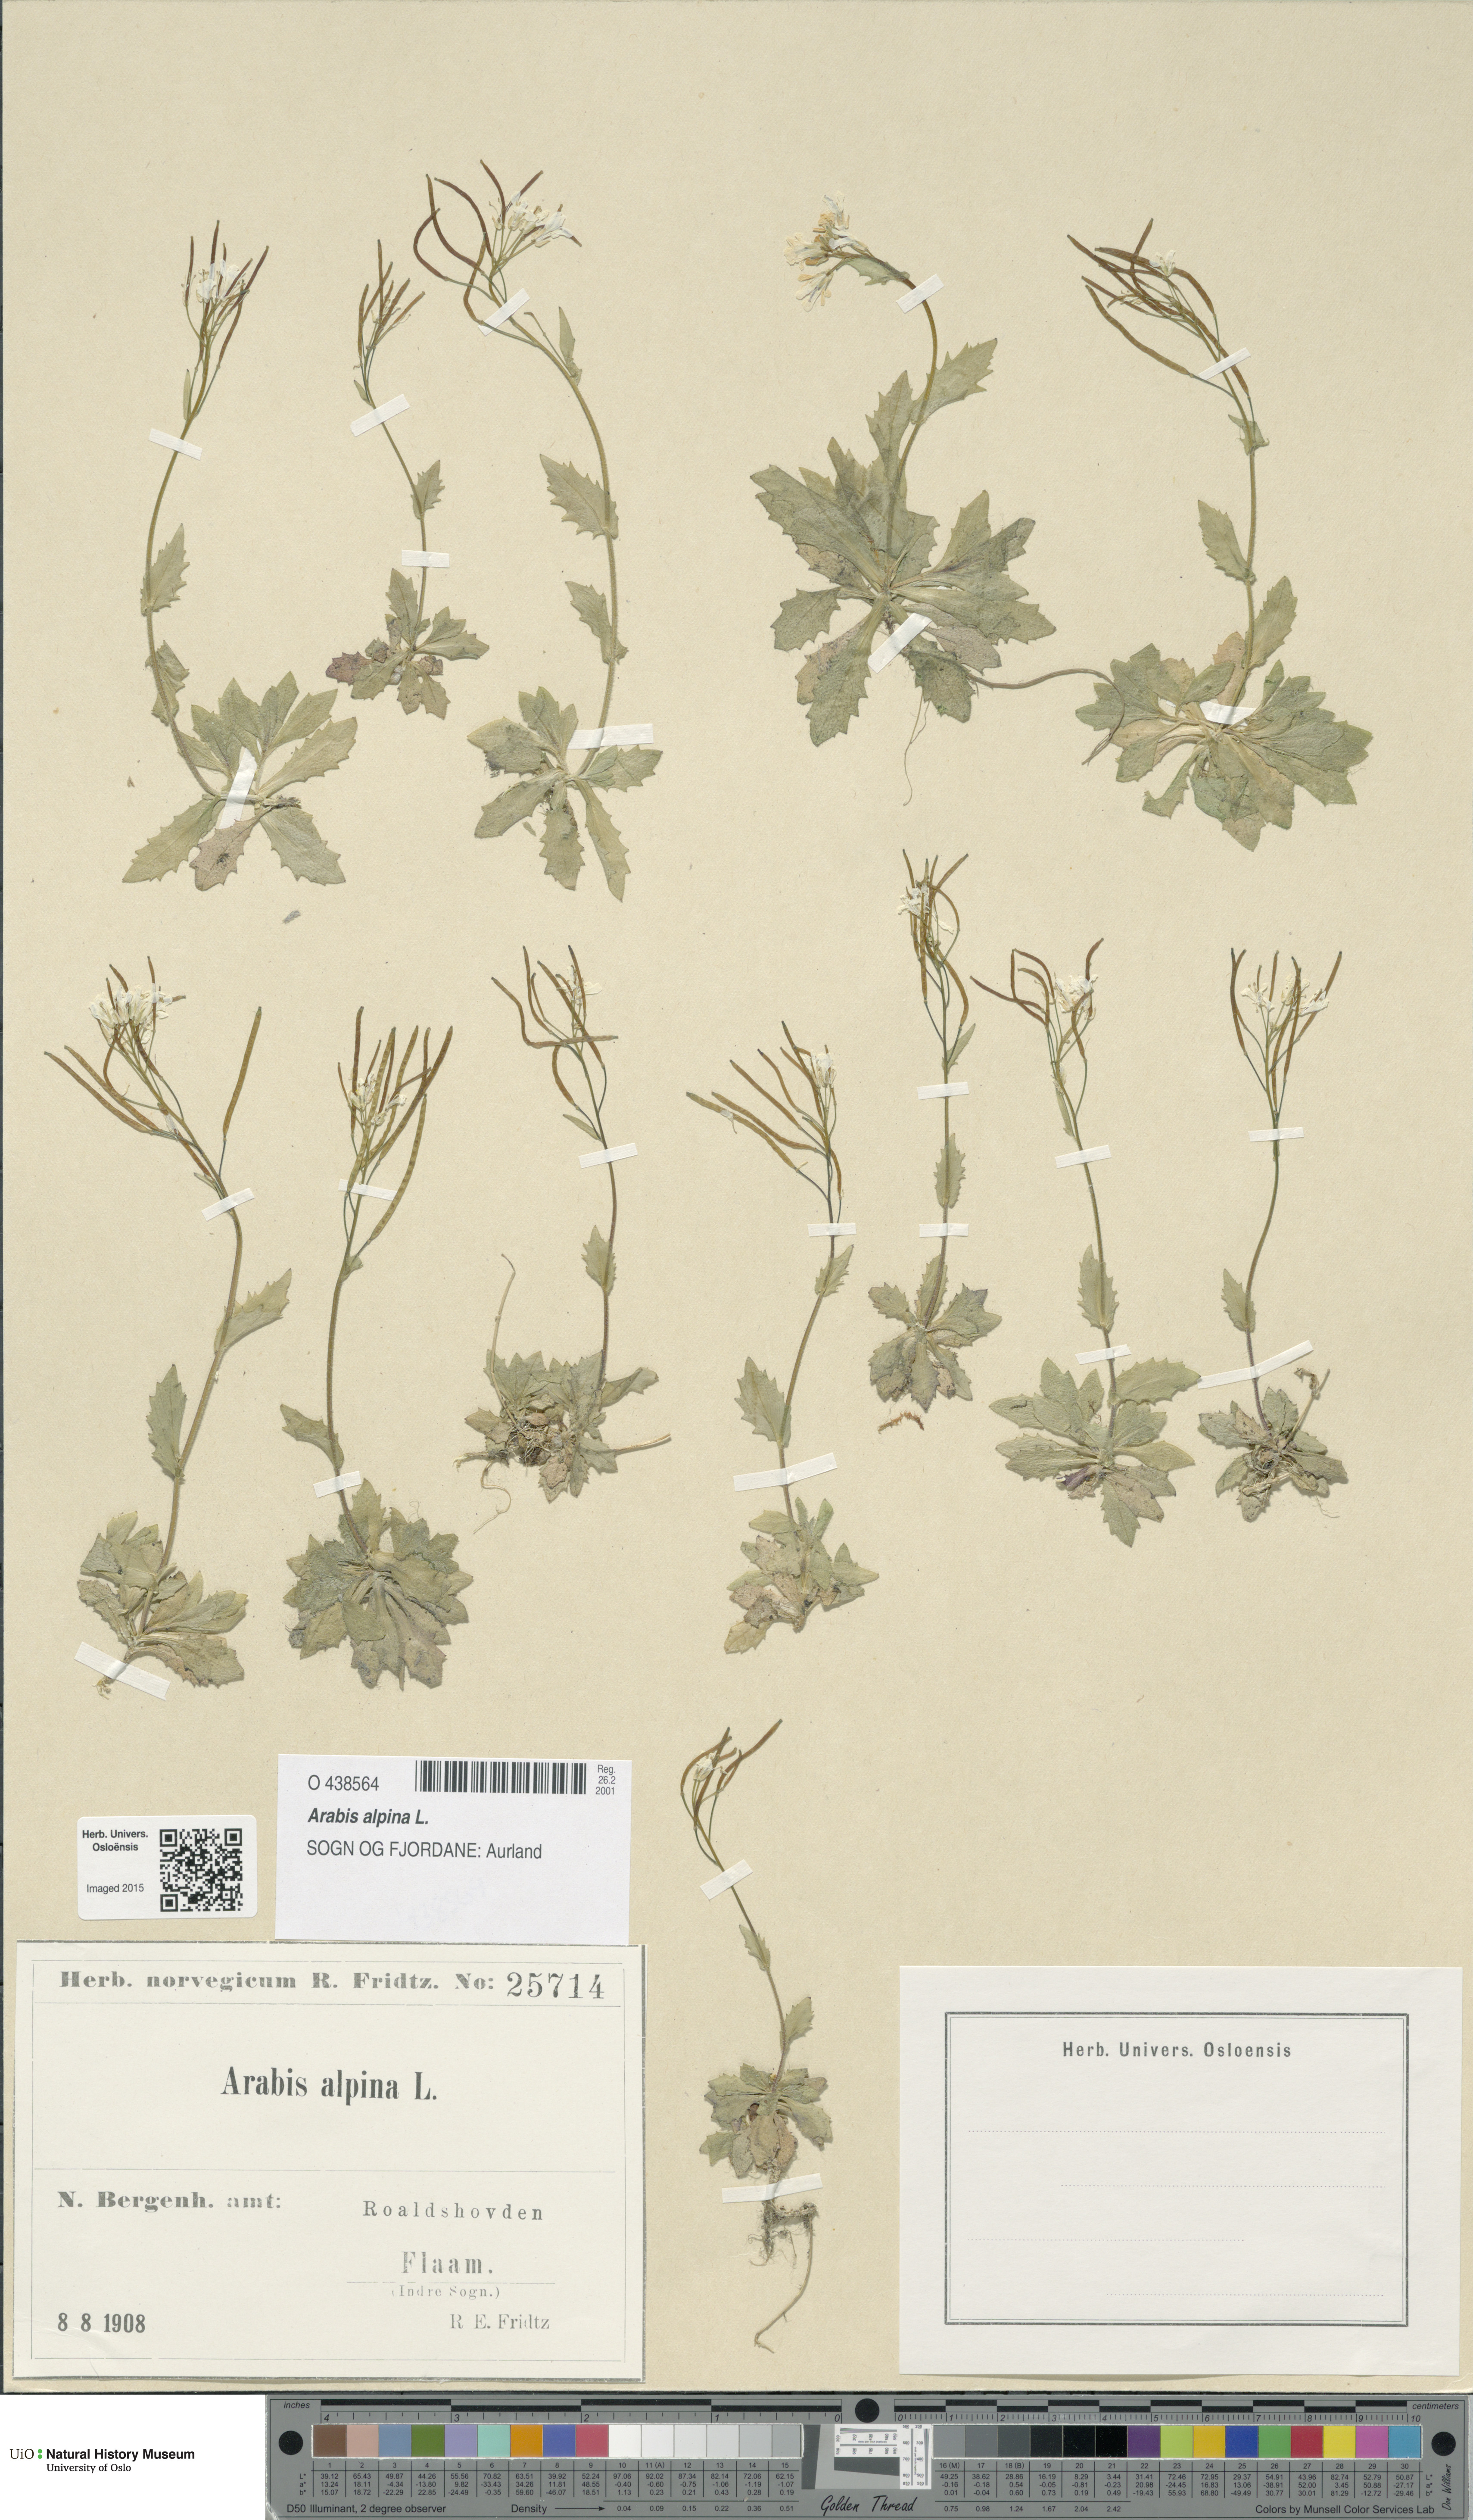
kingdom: Plantae
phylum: Tracheophyta
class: Magnoliopsida
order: Brassicales
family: Brassicaceae
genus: Arabis
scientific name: Arabis alpina
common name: Alpine rock-cress
